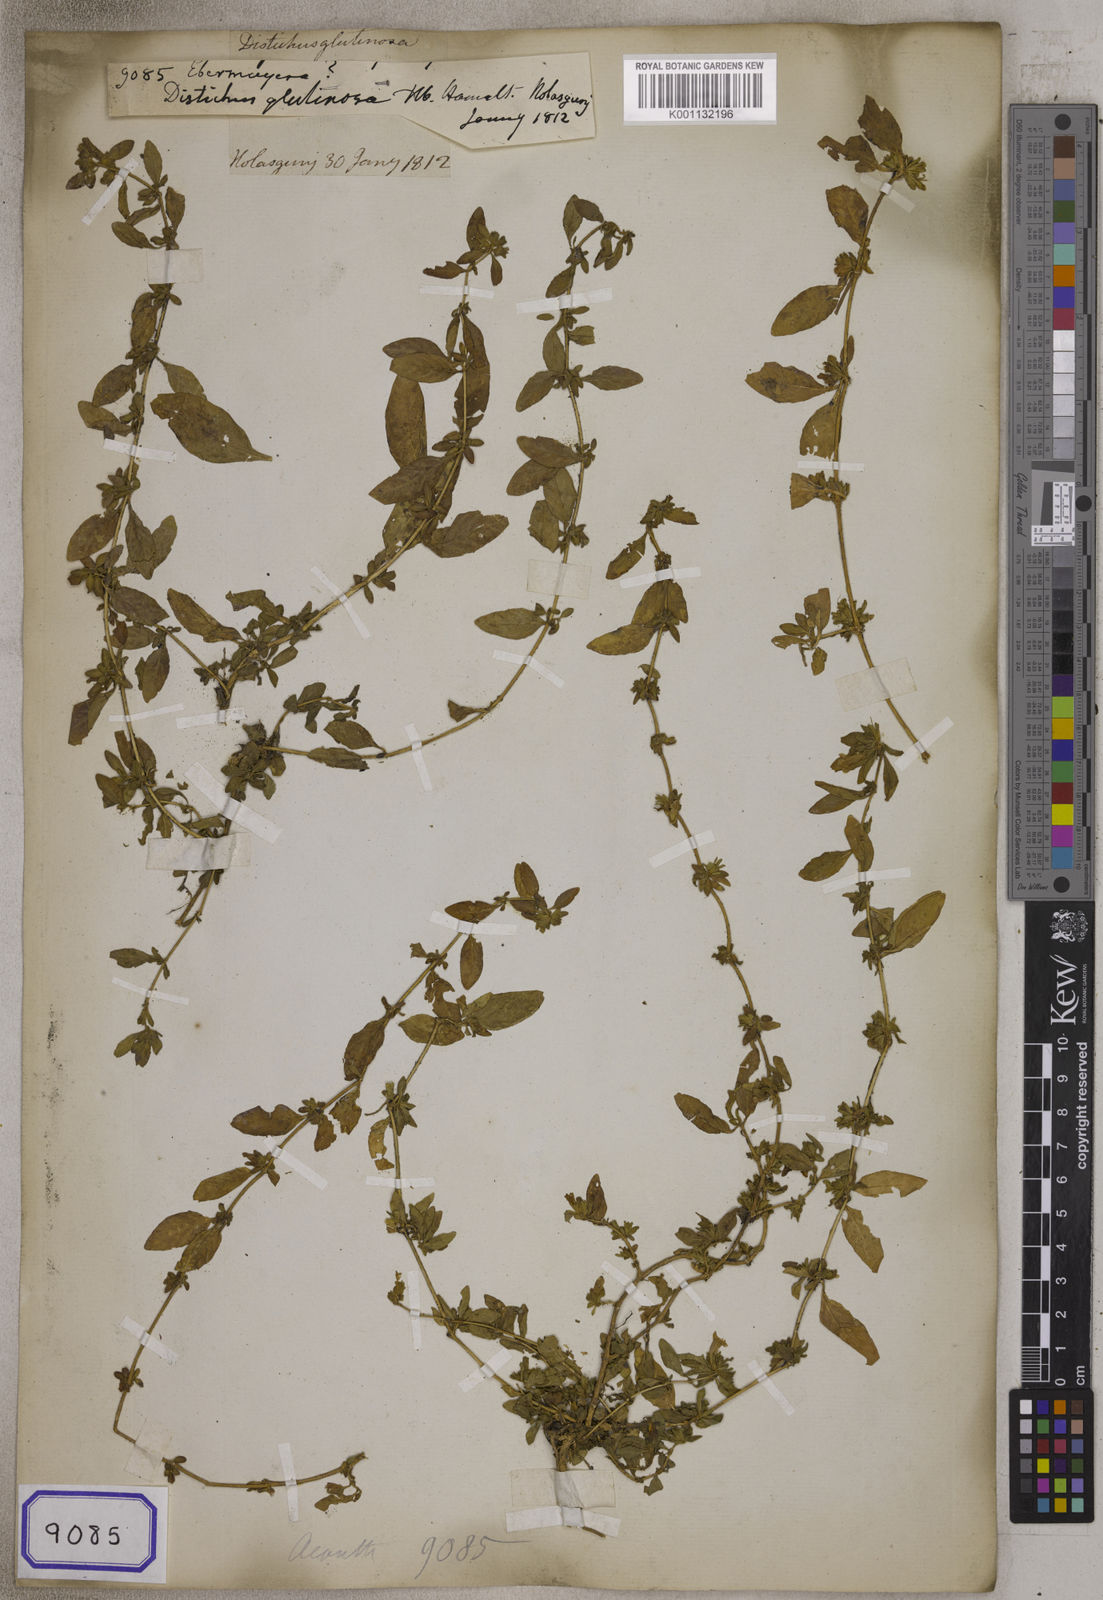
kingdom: Plantae
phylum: Tracheophyta
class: Magnoliopsida
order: Lamiales
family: Acanthaceae
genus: Staurogyne
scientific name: Staurogyne
